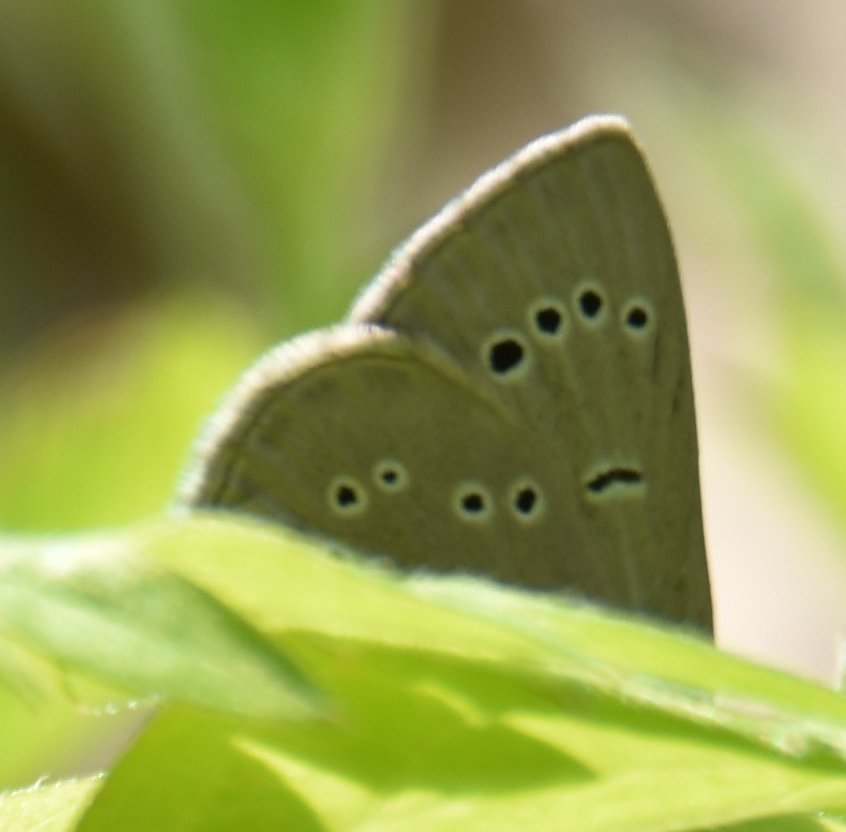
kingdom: Animalia
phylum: Arthropoda
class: Insecta
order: Lepidoptera
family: Lycaenidae
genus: Glaucopsyche
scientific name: Glaucopsyche lygdamus
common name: Silvery Blue
